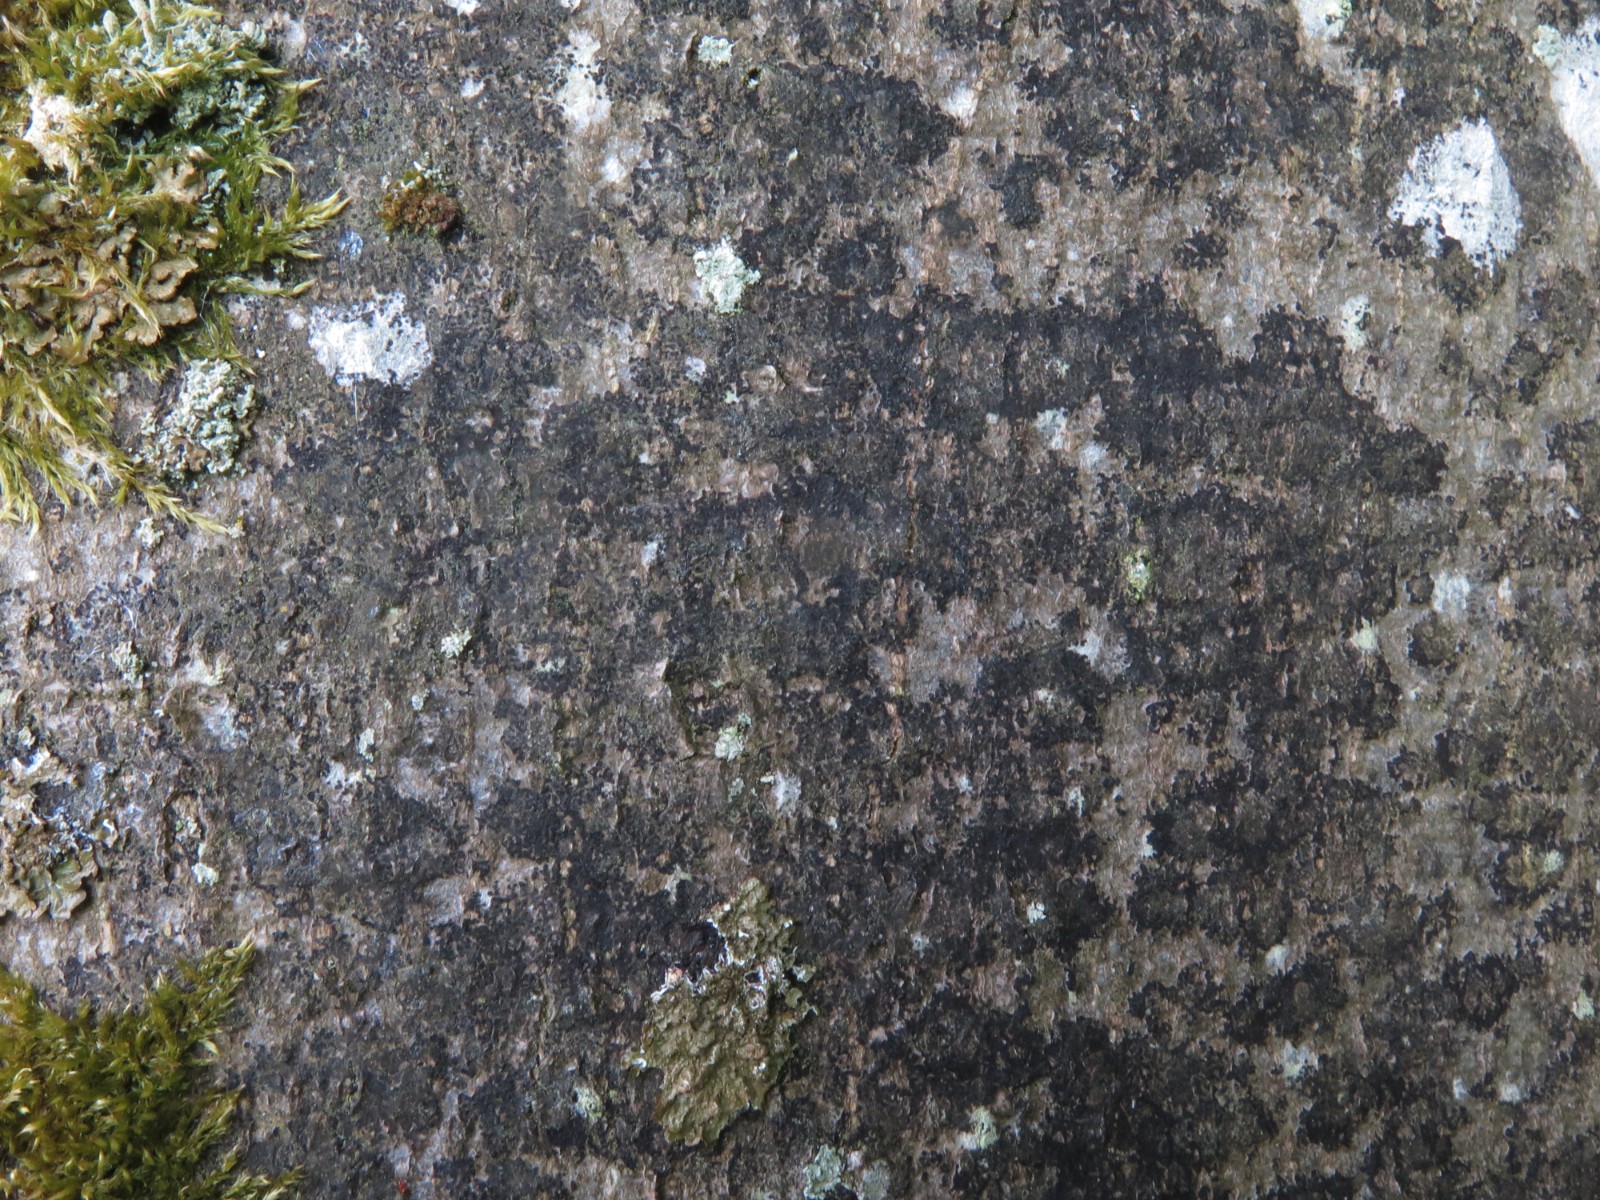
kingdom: Fungi
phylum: Ascomycota
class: Leotiomycetes
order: Rhytismatales
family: Ascodichaenaceae
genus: Ascodichaena
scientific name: Ascodichaena rugosa
